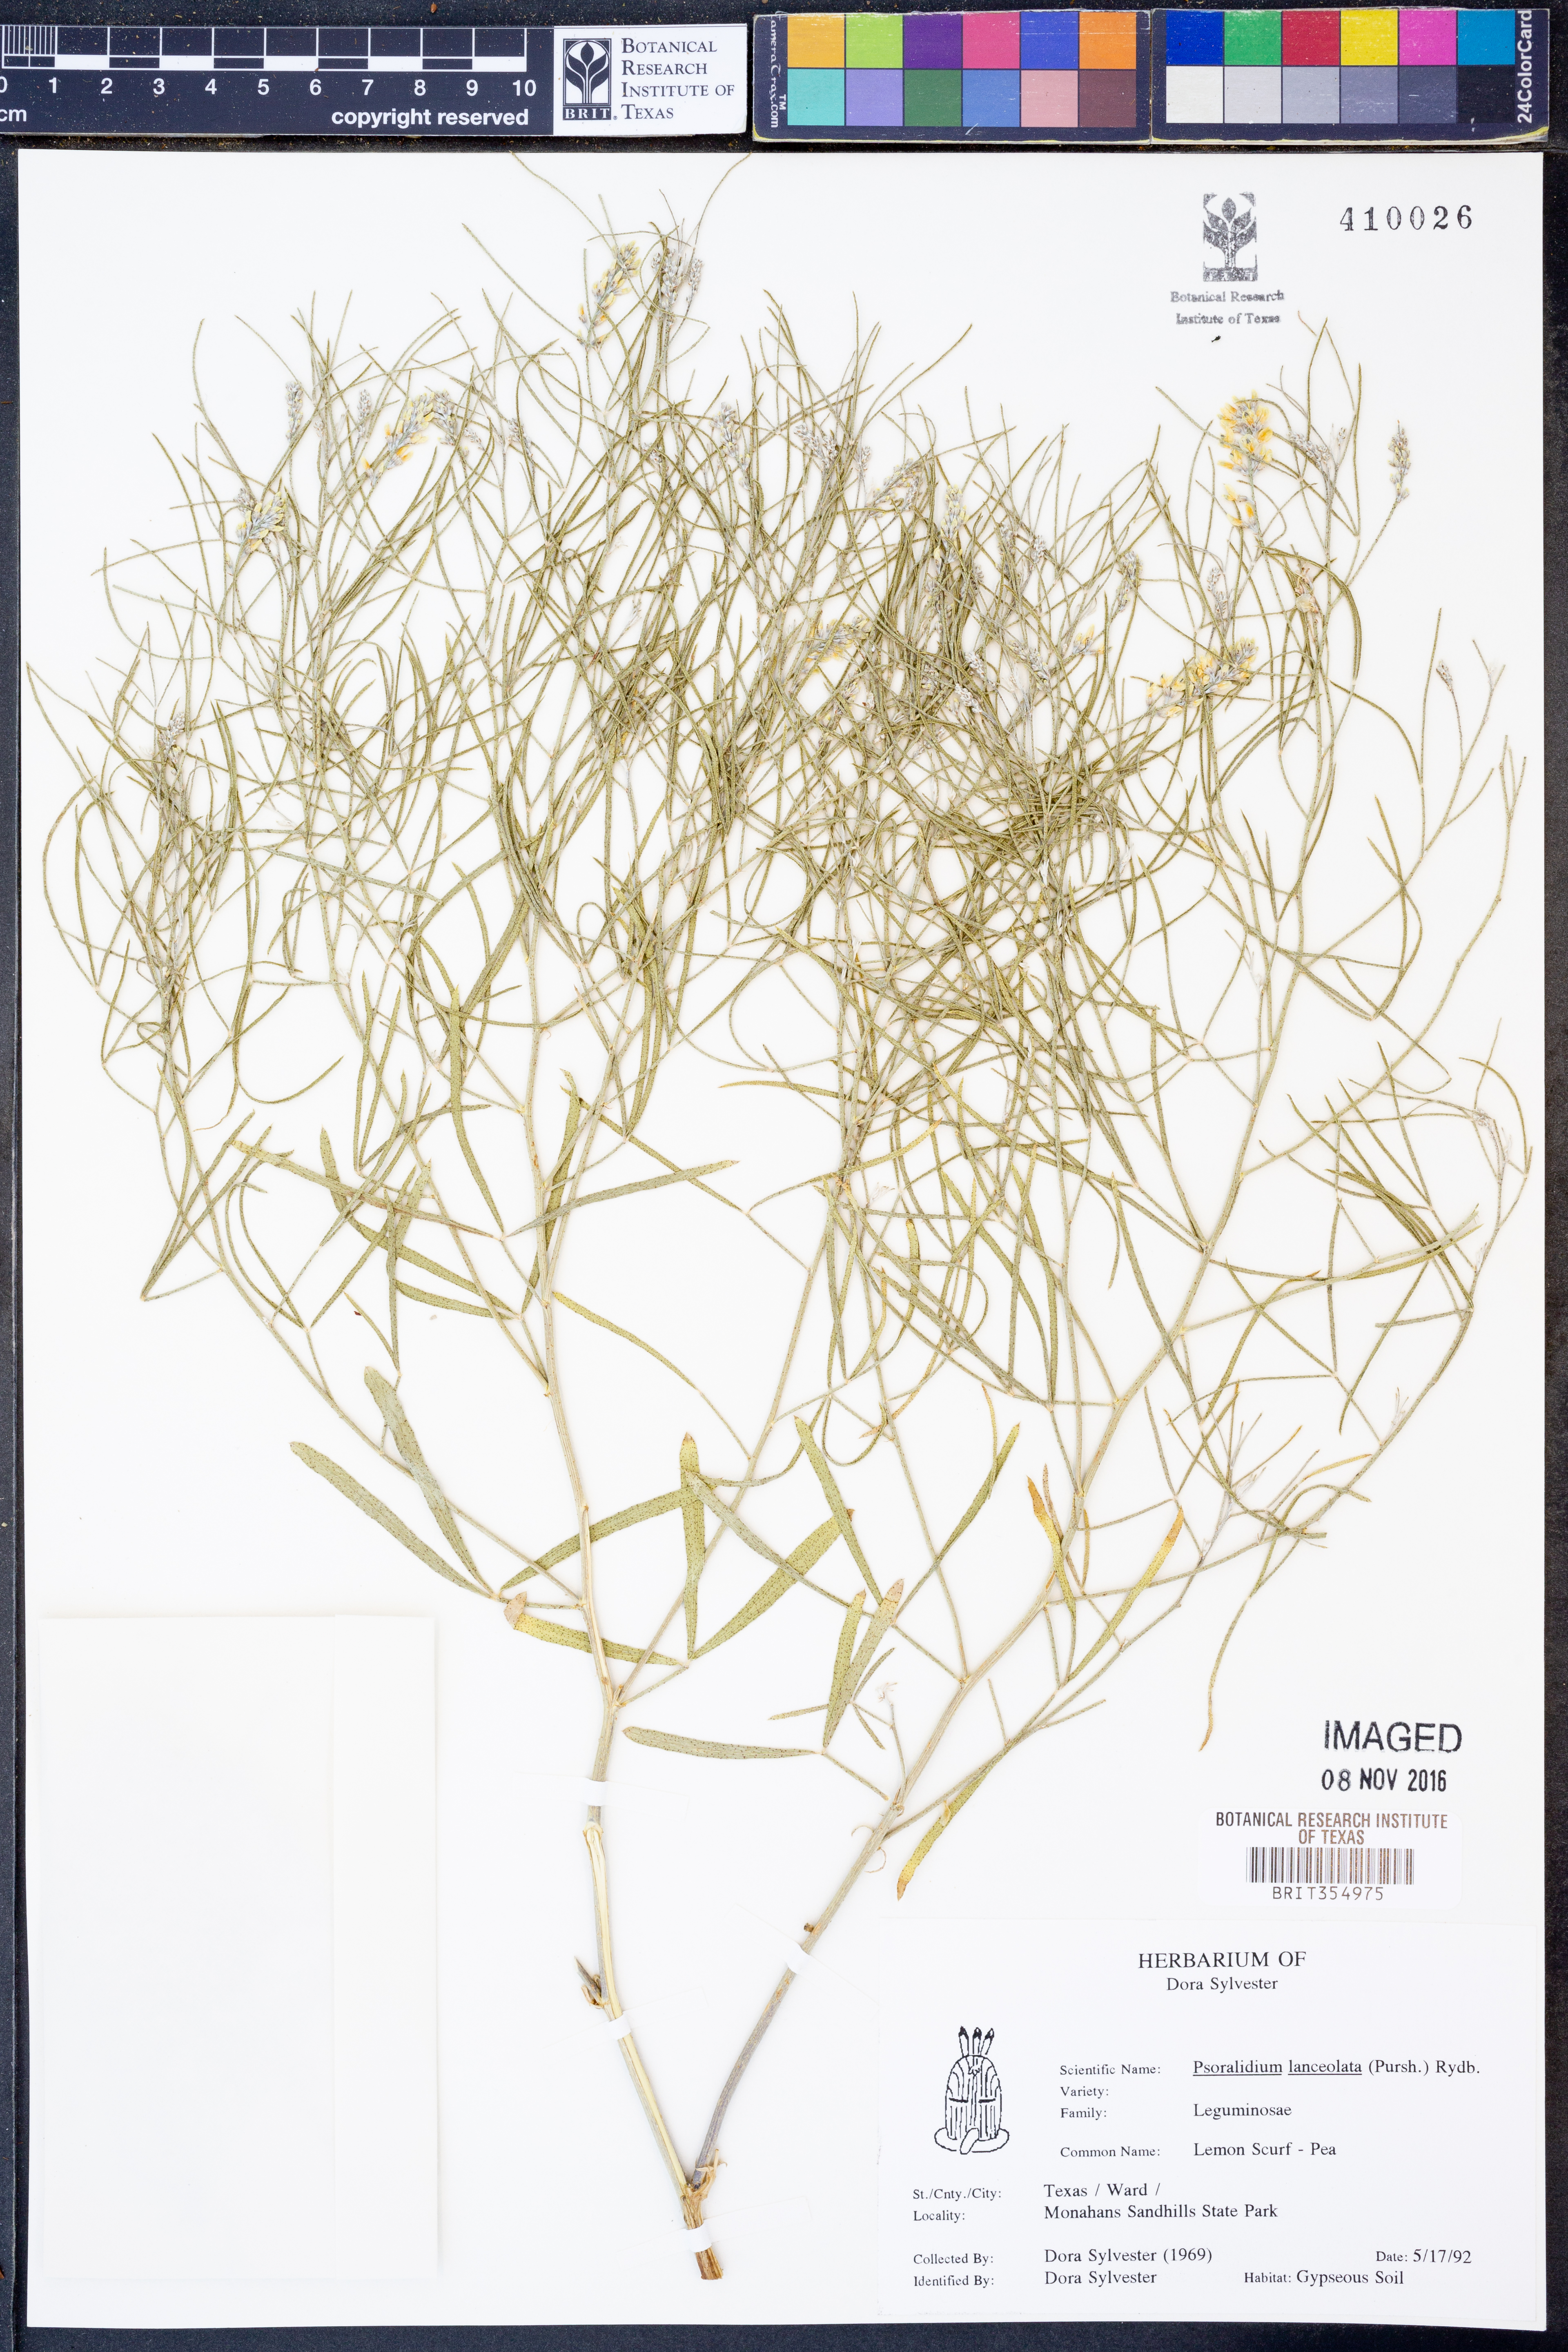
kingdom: Plantae
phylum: Tracheophyta
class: Magnoliopsida
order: Fabales
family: Fabaceae
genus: Ladeania
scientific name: Ladeania lanceolata
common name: Dune scurf-pea
